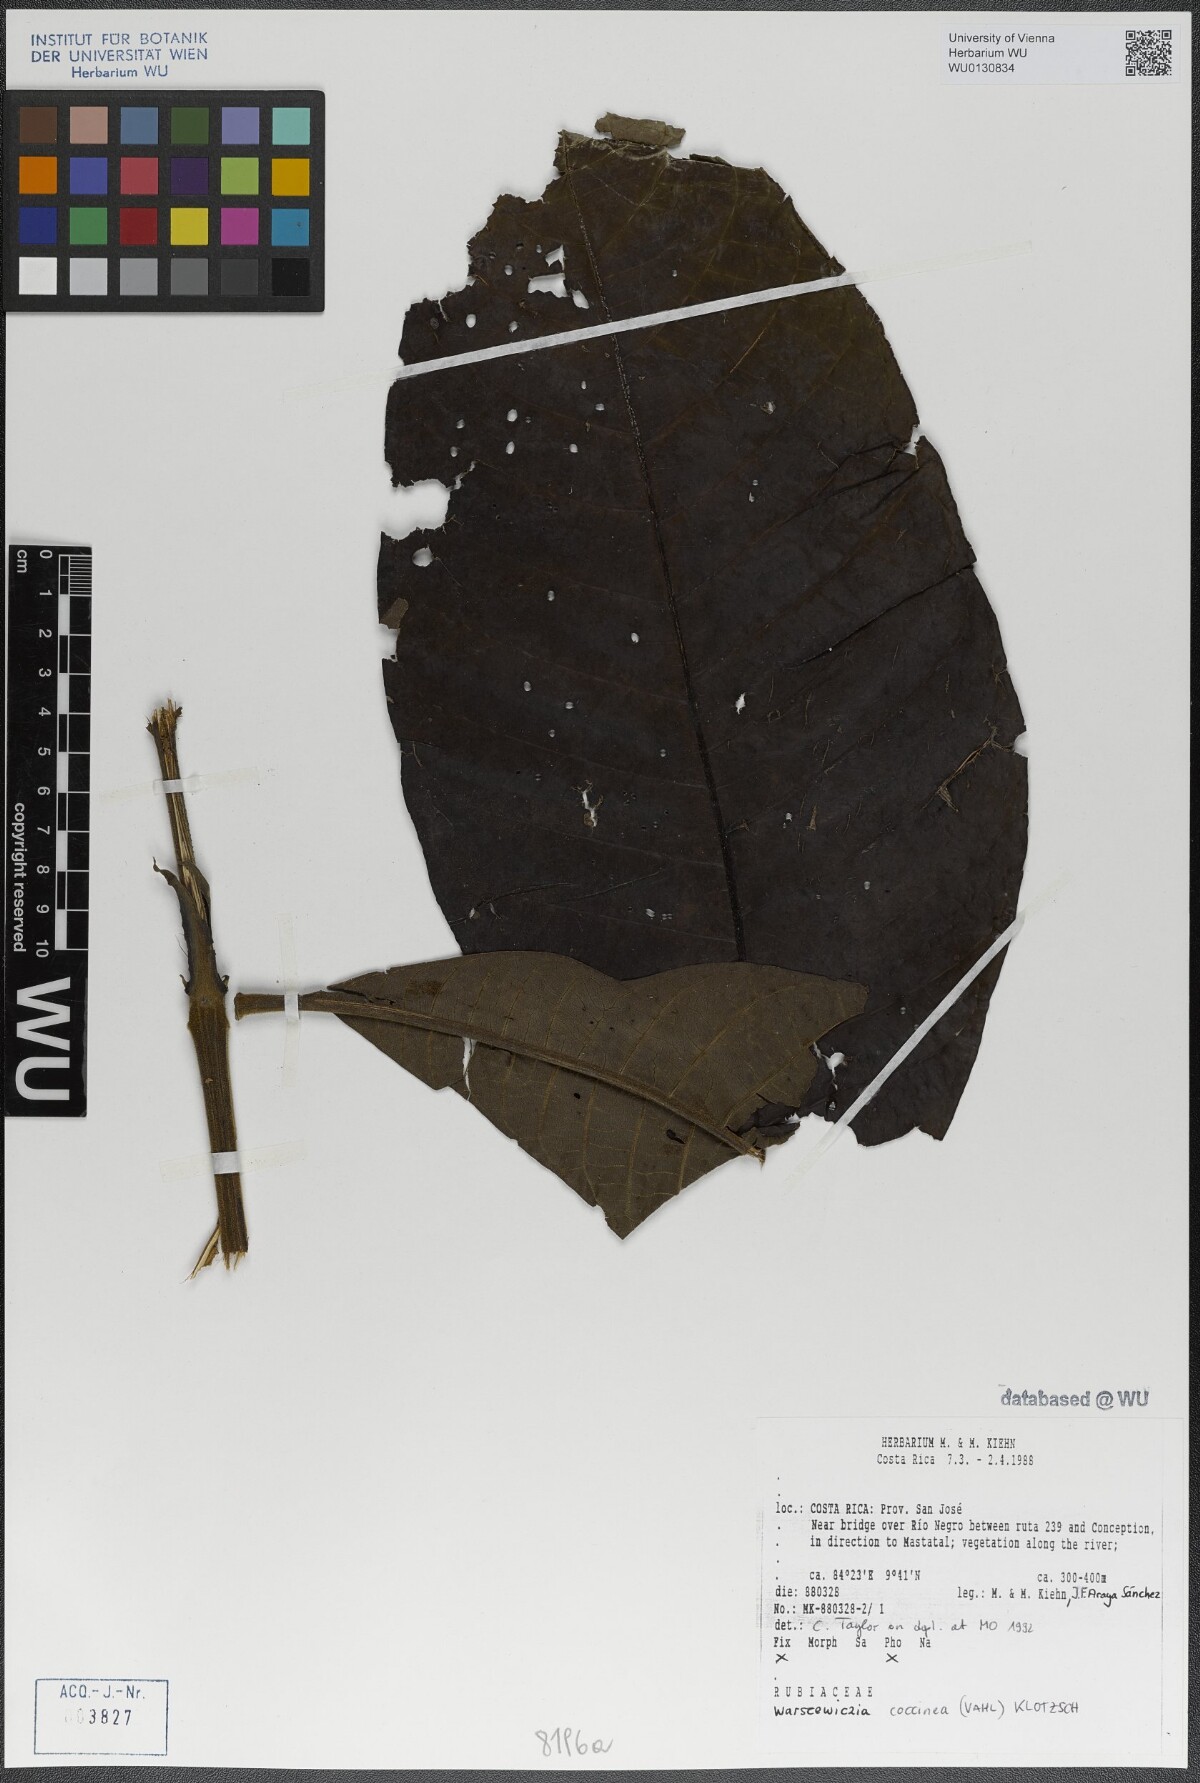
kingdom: Plantae
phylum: Tracheophyta
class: Magnoliopsida
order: Gentianales
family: Rubiaceae
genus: Warszewiczia
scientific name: Warszewiczia coccinea
